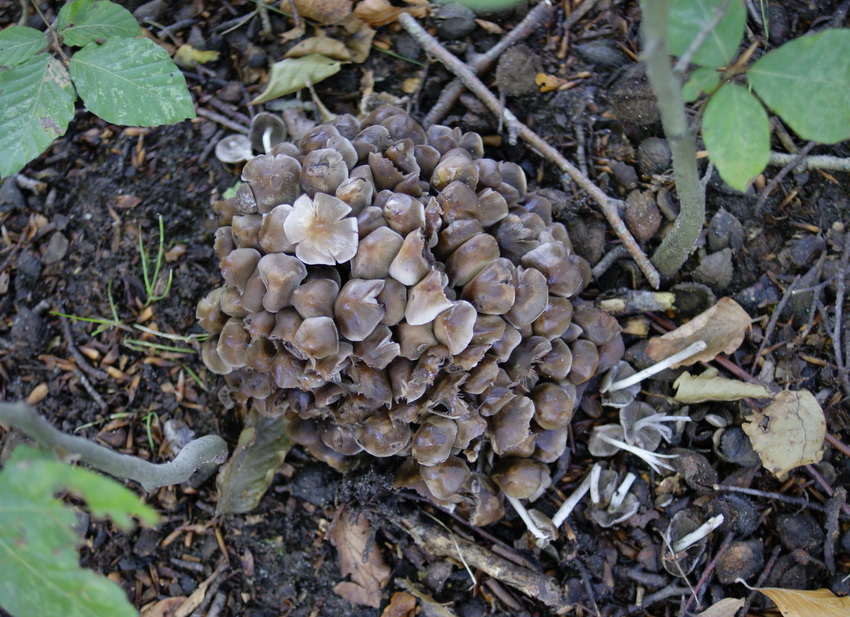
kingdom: Fungi
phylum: Basidiomycota
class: Agaricomycetes
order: Agaricales
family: Psathyrellaceae
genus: Britzelmayria
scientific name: Britzelmayria multipedata
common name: knippe-mørkhat
